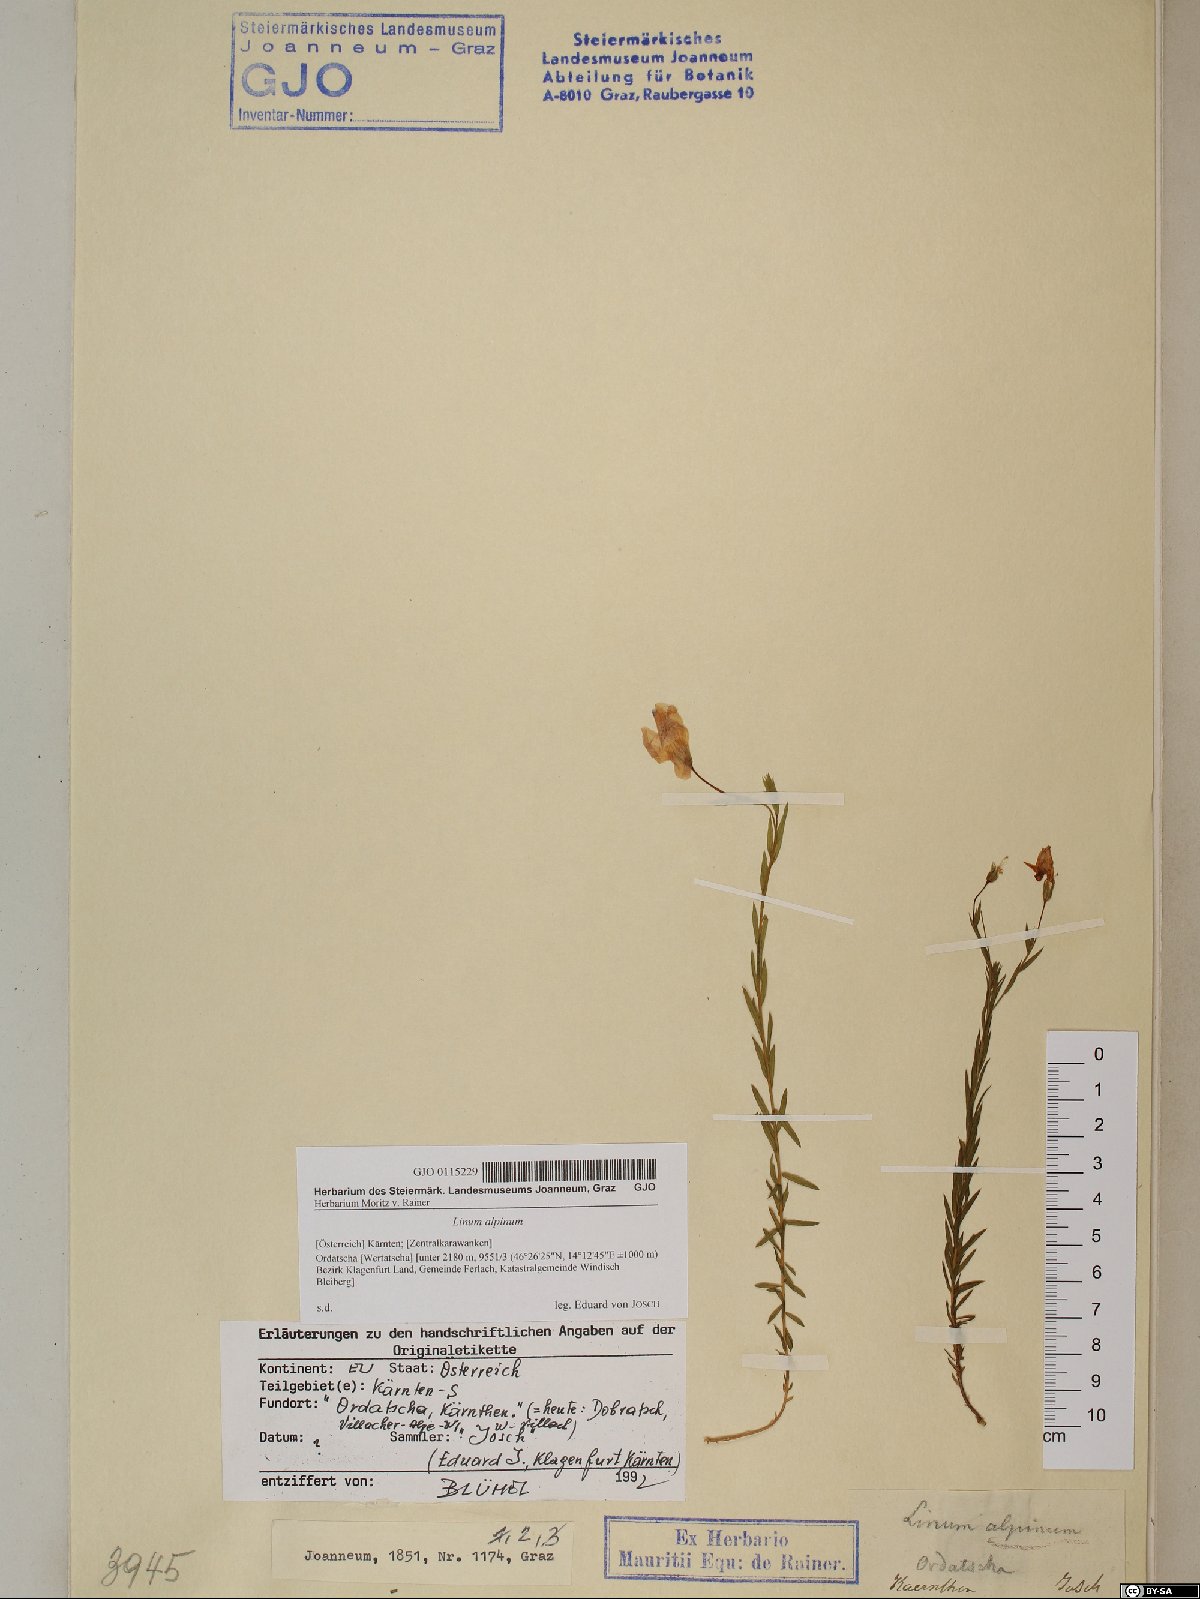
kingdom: Plantae
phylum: Tracheophyta
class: Magnoliopsida
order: Malpighiales
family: Linaceae
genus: Linum
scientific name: Linum alpinum
